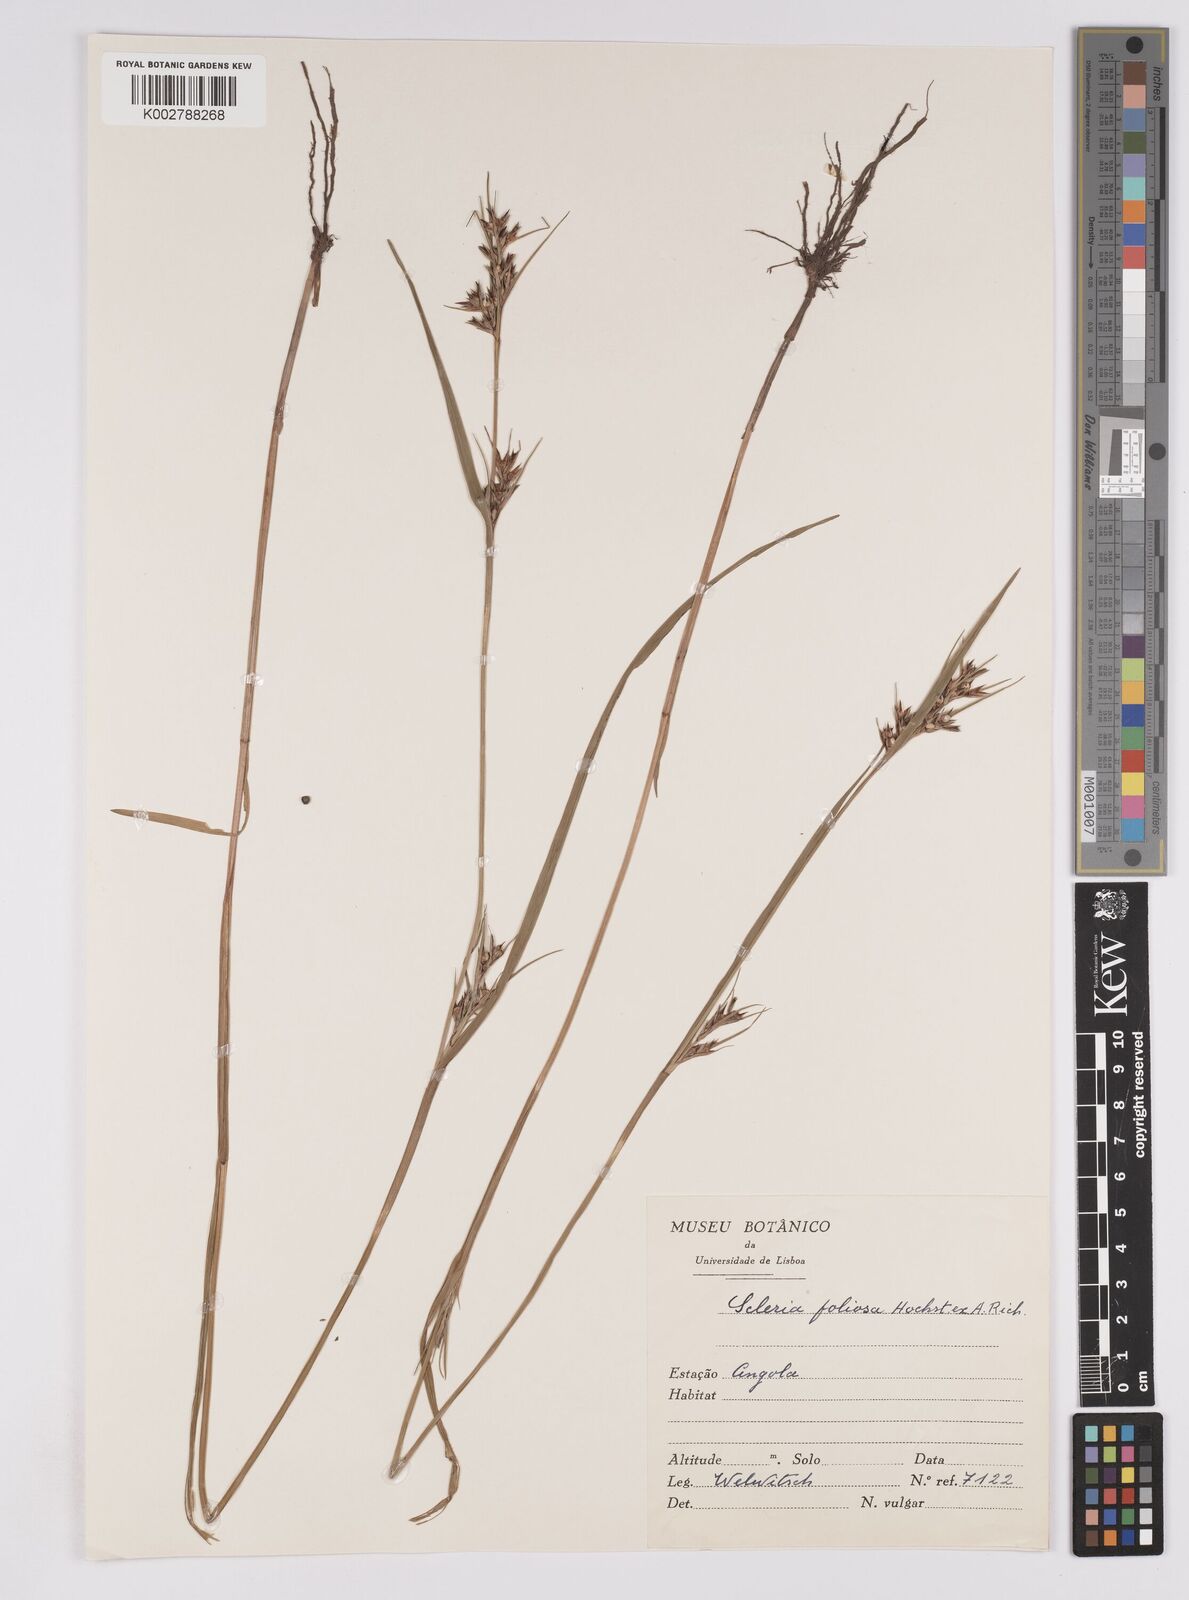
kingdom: Plantae
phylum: Tracheophyta
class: Liliopsida
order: Poales
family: Cyperaceae
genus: Scleria
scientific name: Scleria foliosa
